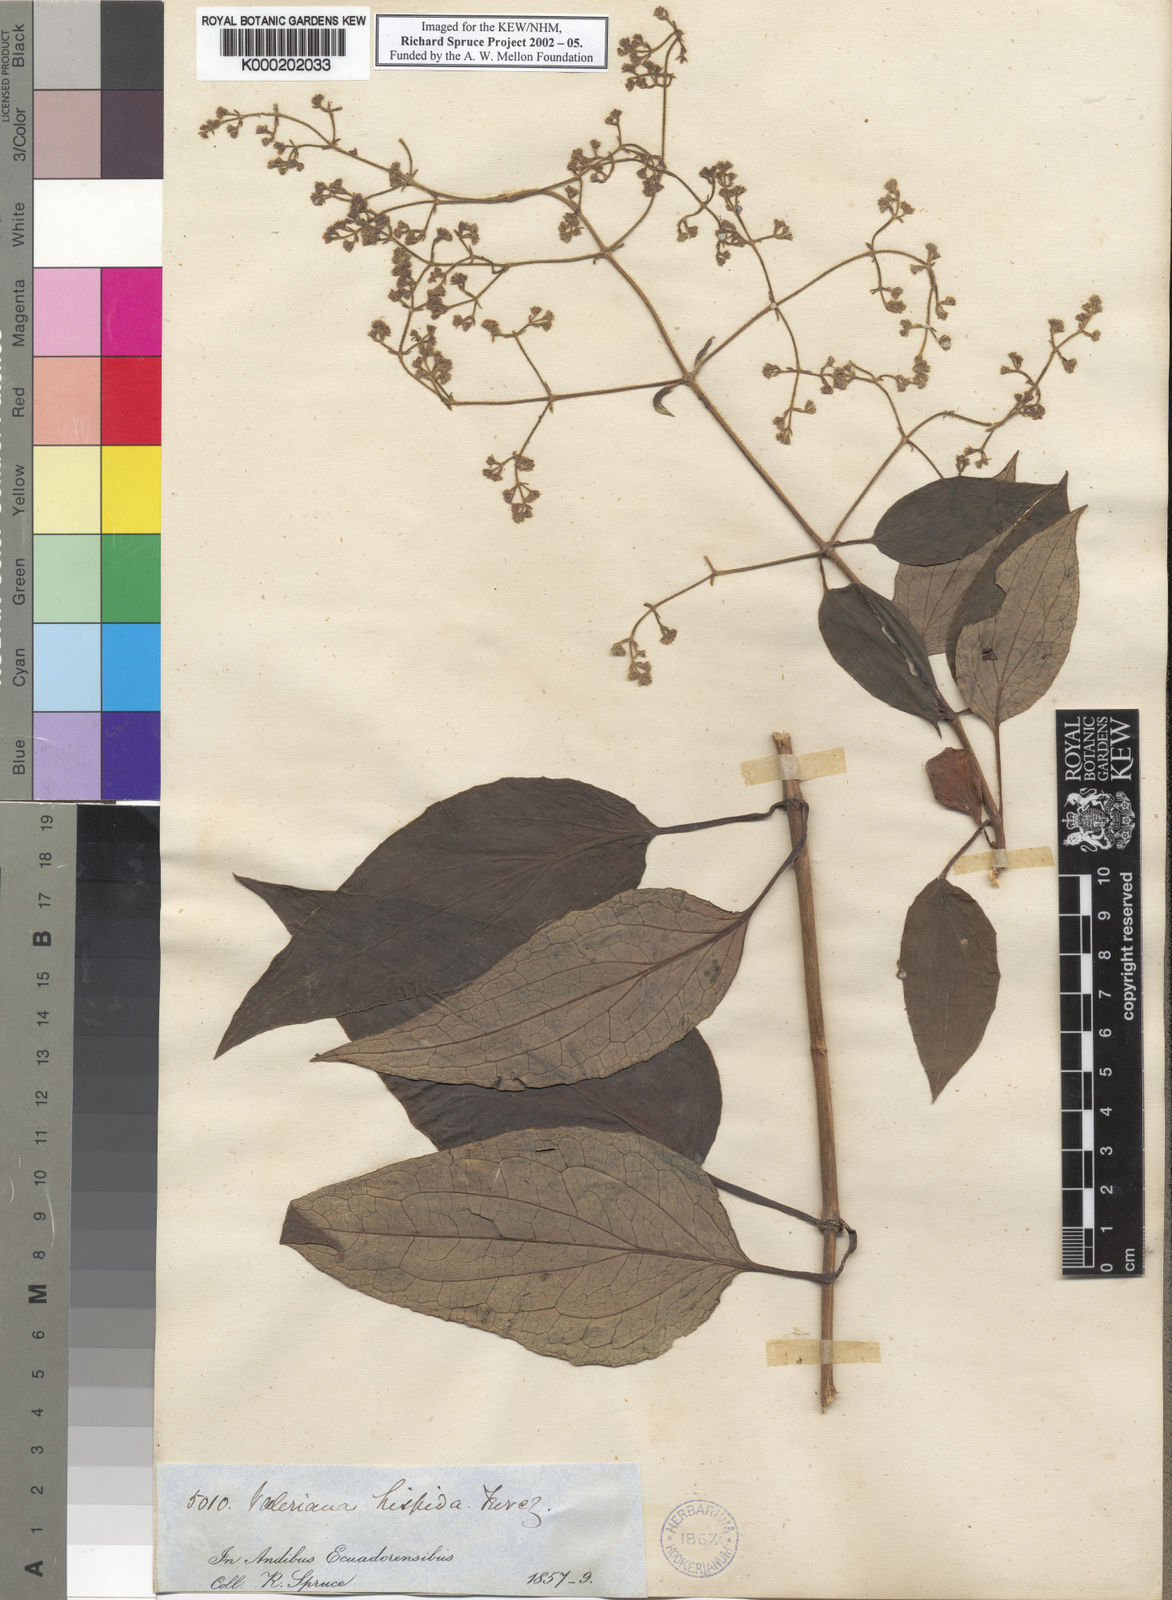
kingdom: Plantae
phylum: Tracheophyta
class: Magnoliopsida
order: Dipsacales
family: Caprifoliaceae
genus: Valeriana
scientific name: Valeriana clematitis
